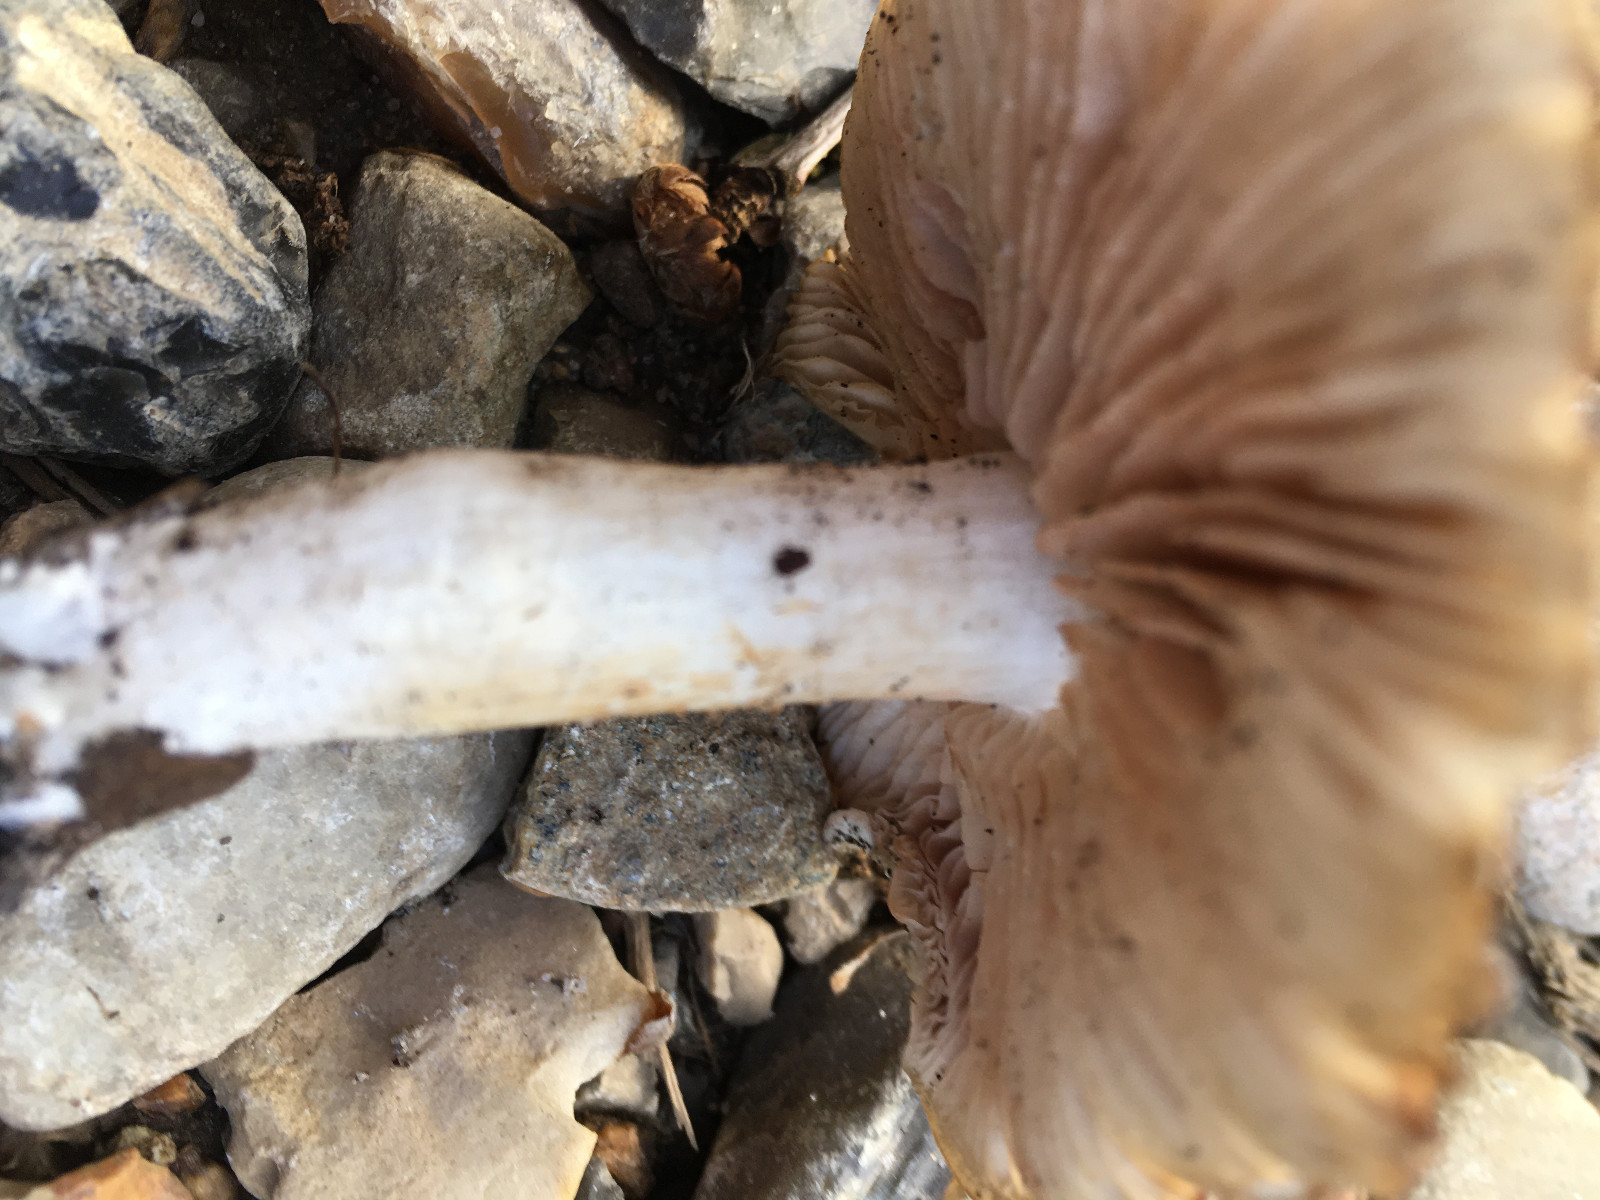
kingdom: Fungi
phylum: Basidiomycota
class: Agaricomycetes
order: Agaricales
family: Entolomataceae
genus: Entoloma
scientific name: Entoloma clypeatum
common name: flammet rødblad
